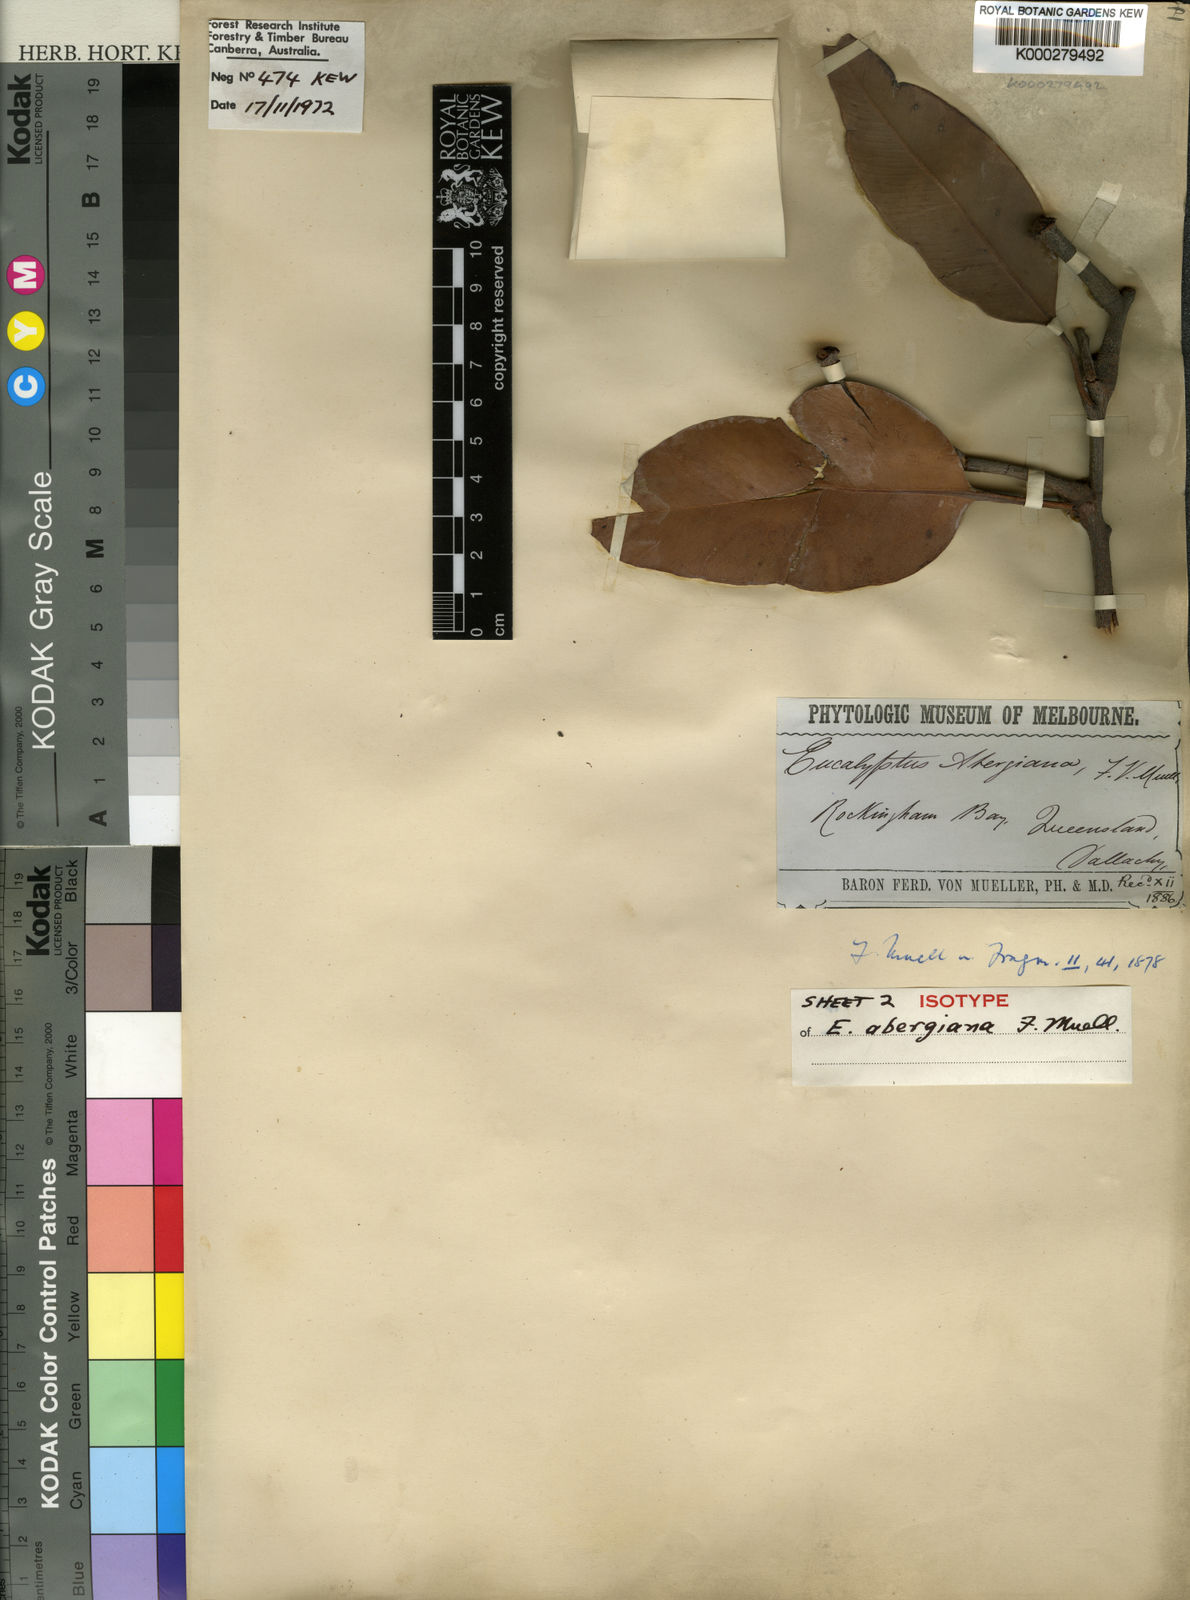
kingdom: Plantae
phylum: Tracheophyta
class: Magnoliopsida
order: Myrtales
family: Myrtaceae
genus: Corymbia
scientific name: Corymbia abergiana
